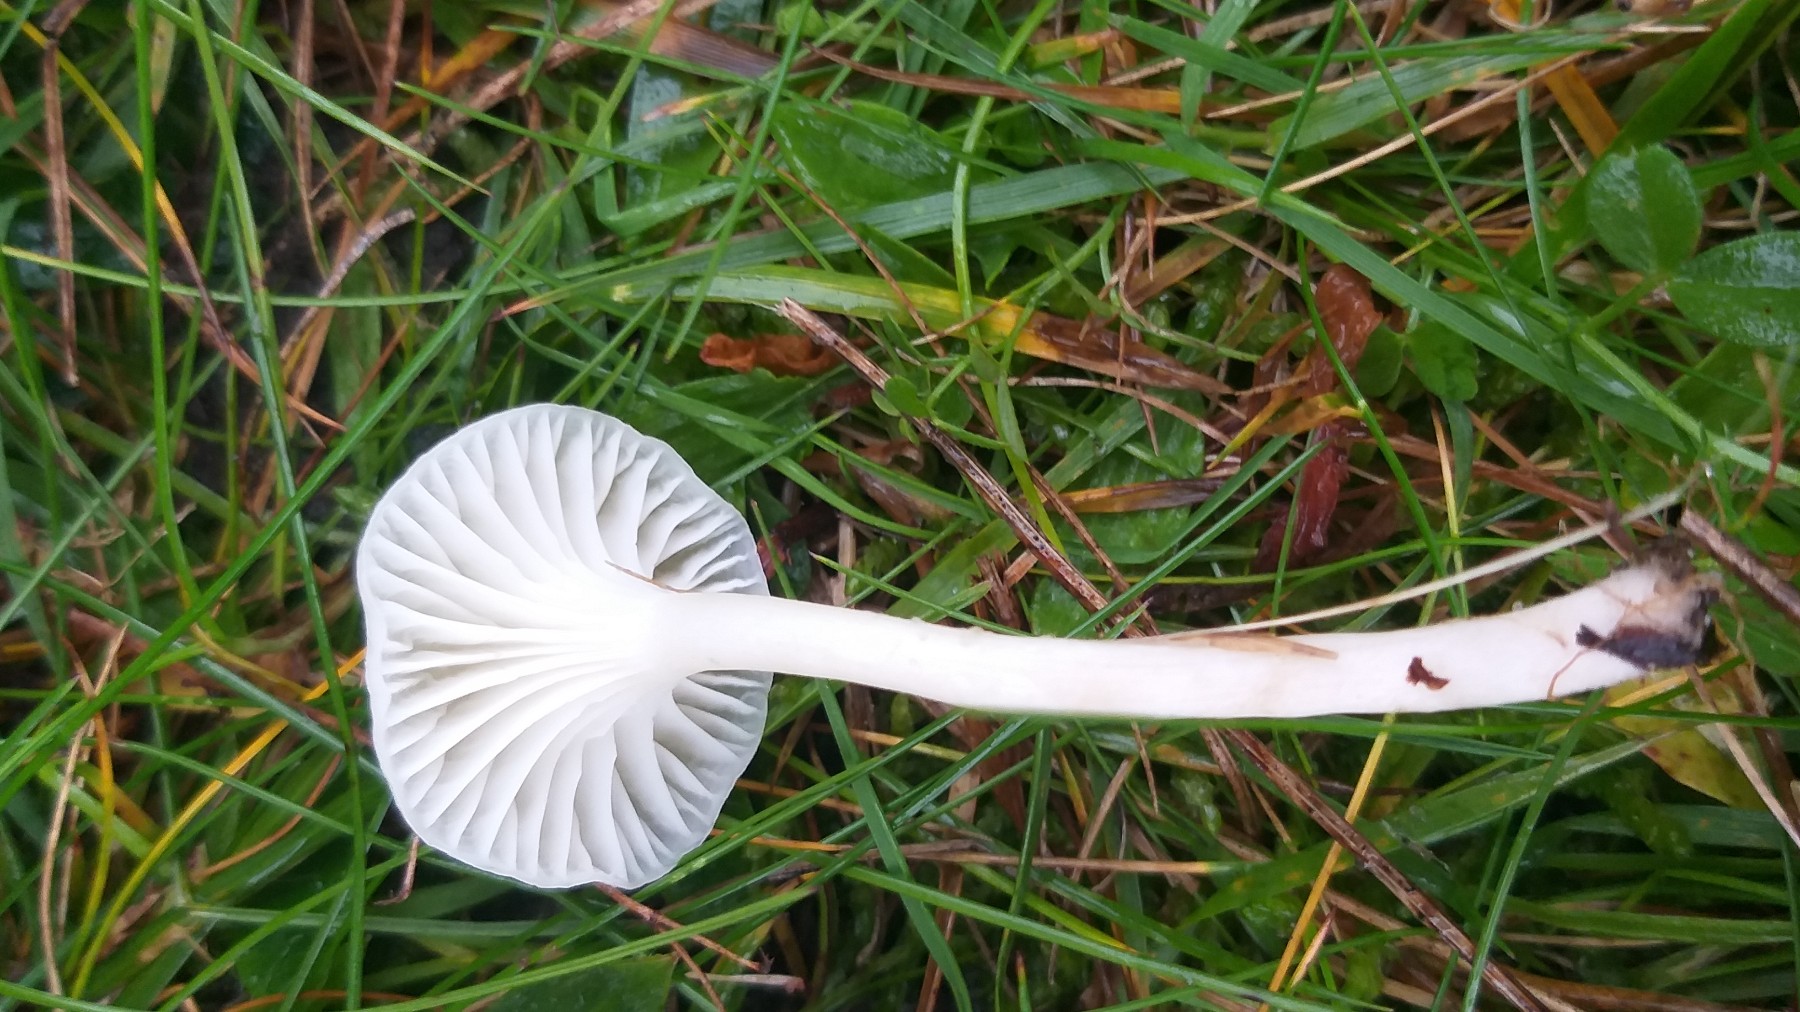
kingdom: Fungi
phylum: Basidiomycota
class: Agaricomycetes
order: Agaricales
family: Hygrophoraceae
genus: Cuphophyllus
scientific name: Cuphophyllus virgineus
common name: snehvid vokshat
